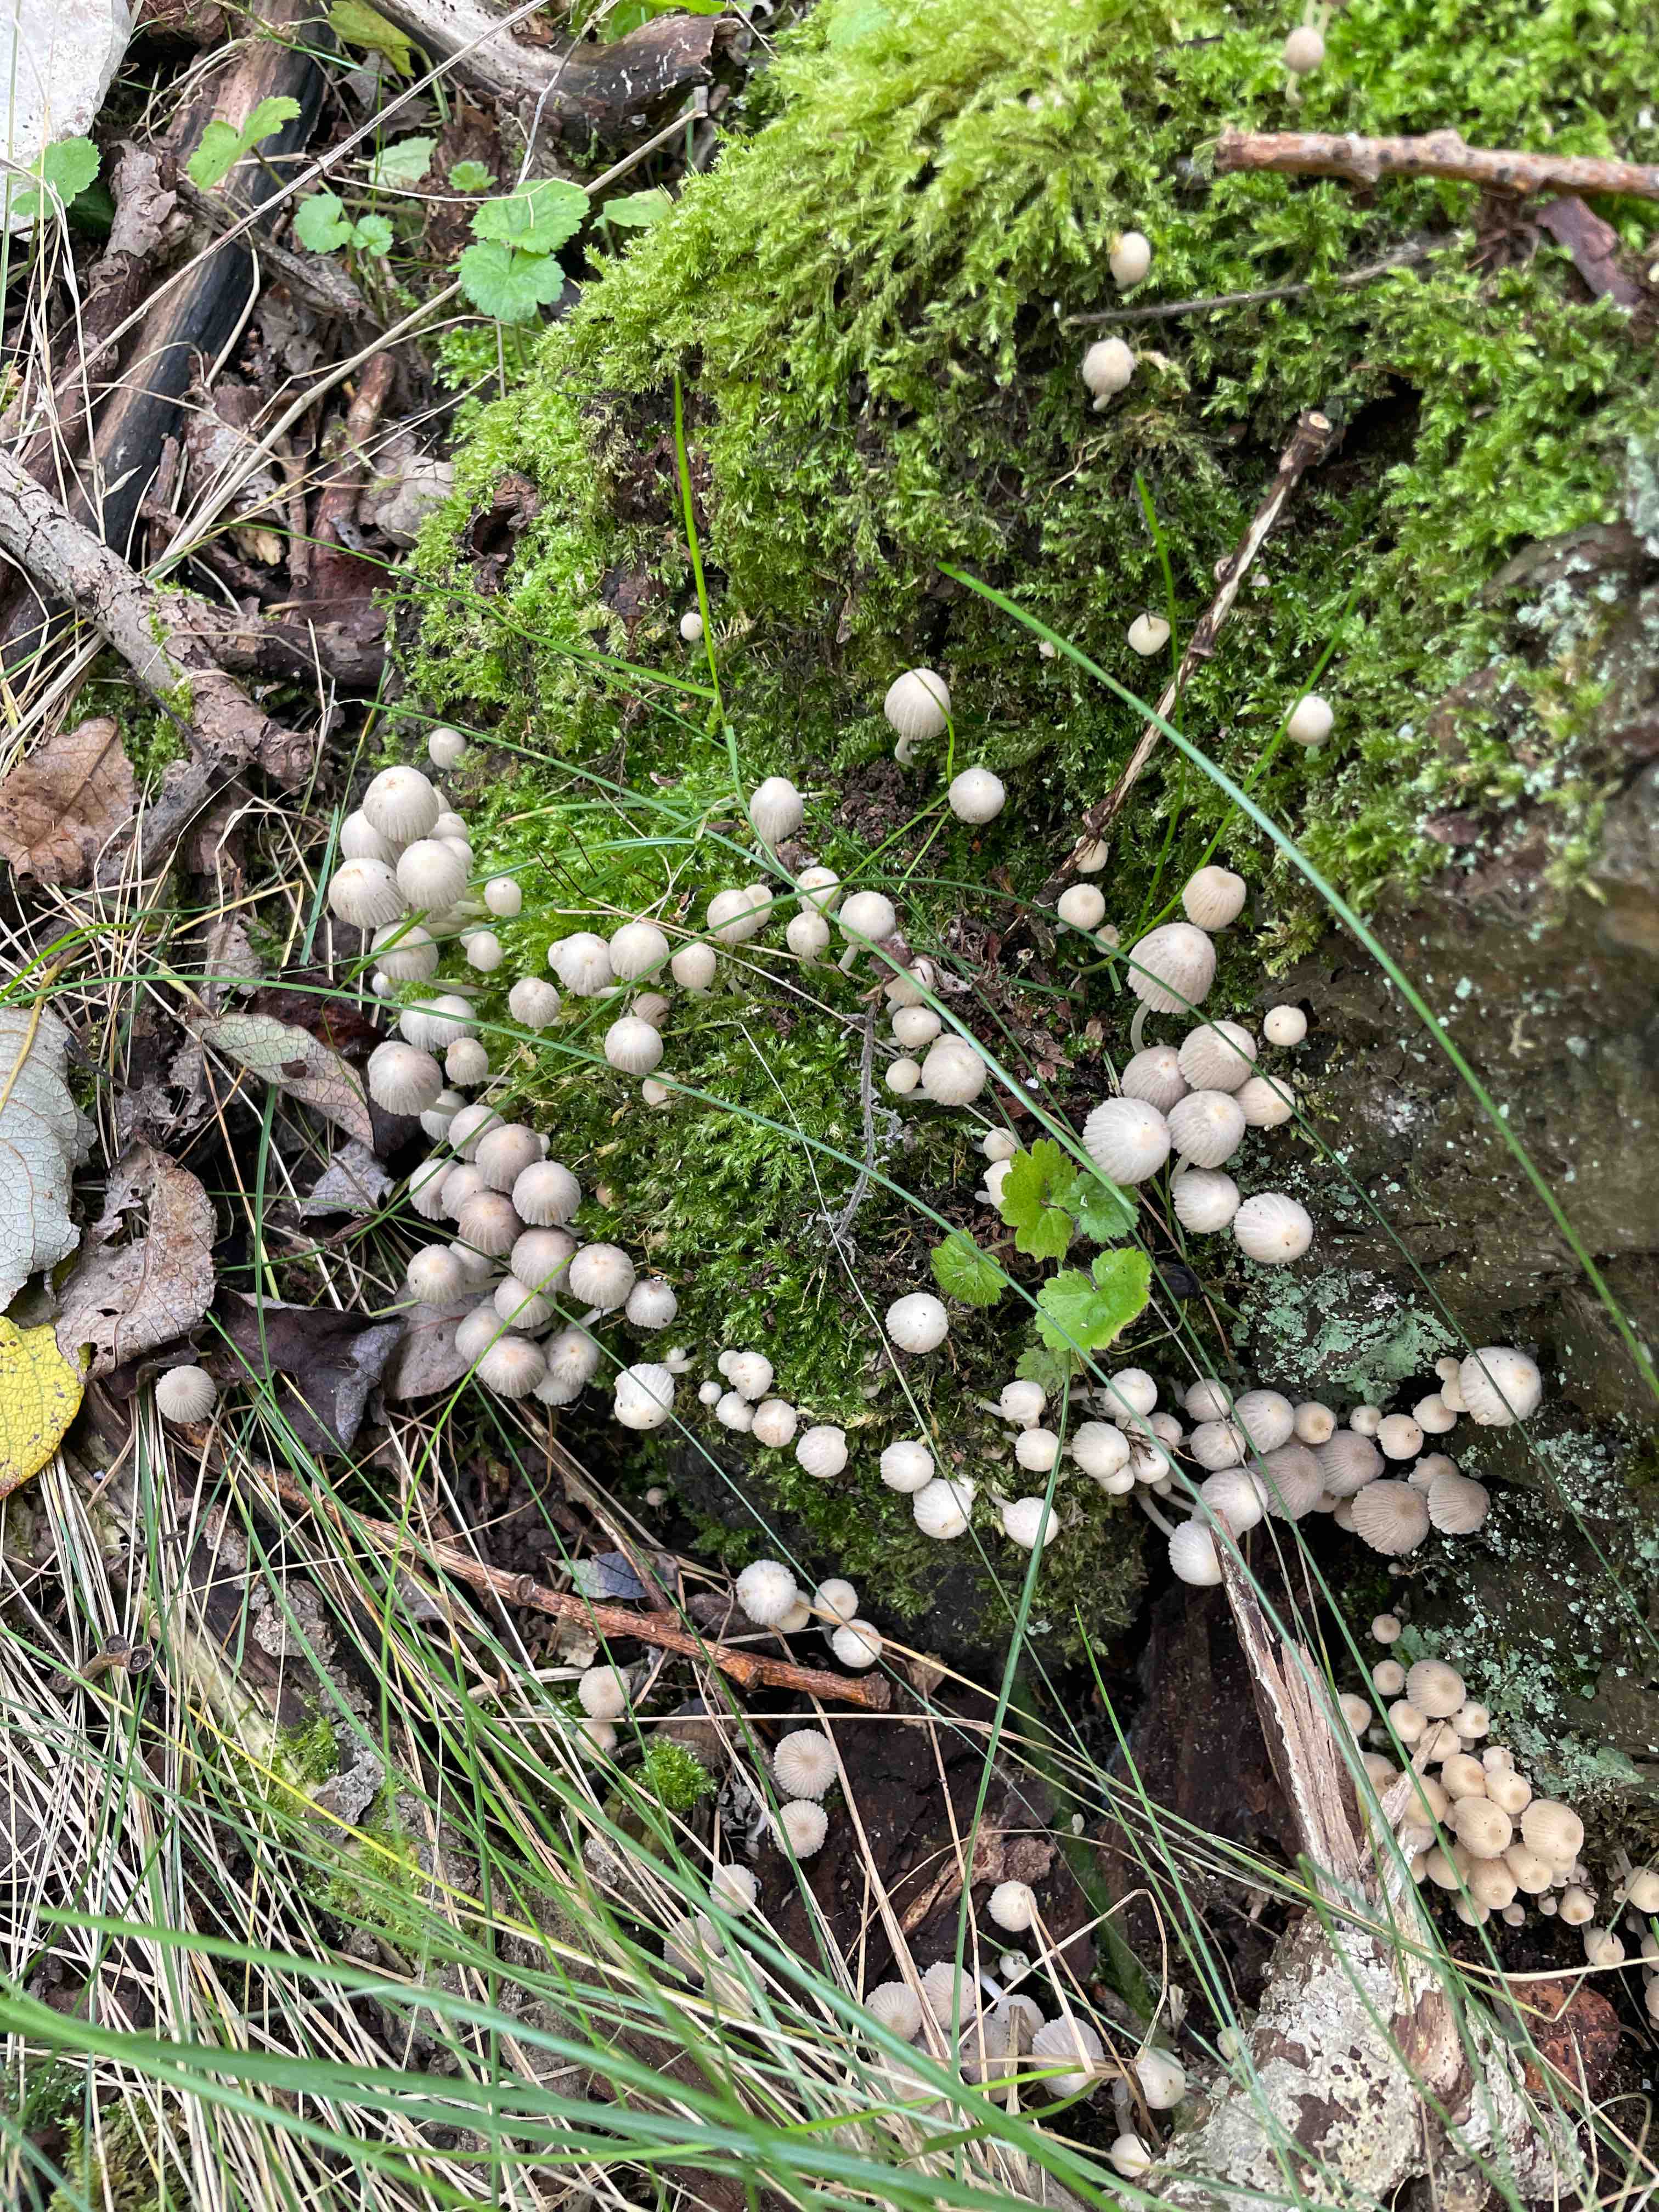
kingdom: Fungi
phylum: Basidiomycota
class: Agaricomycetes
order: Agaricales
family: Psathyrellaceae
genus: Coprinellus
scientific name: Coprinellus disseminatus
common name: bredsået blækhat
